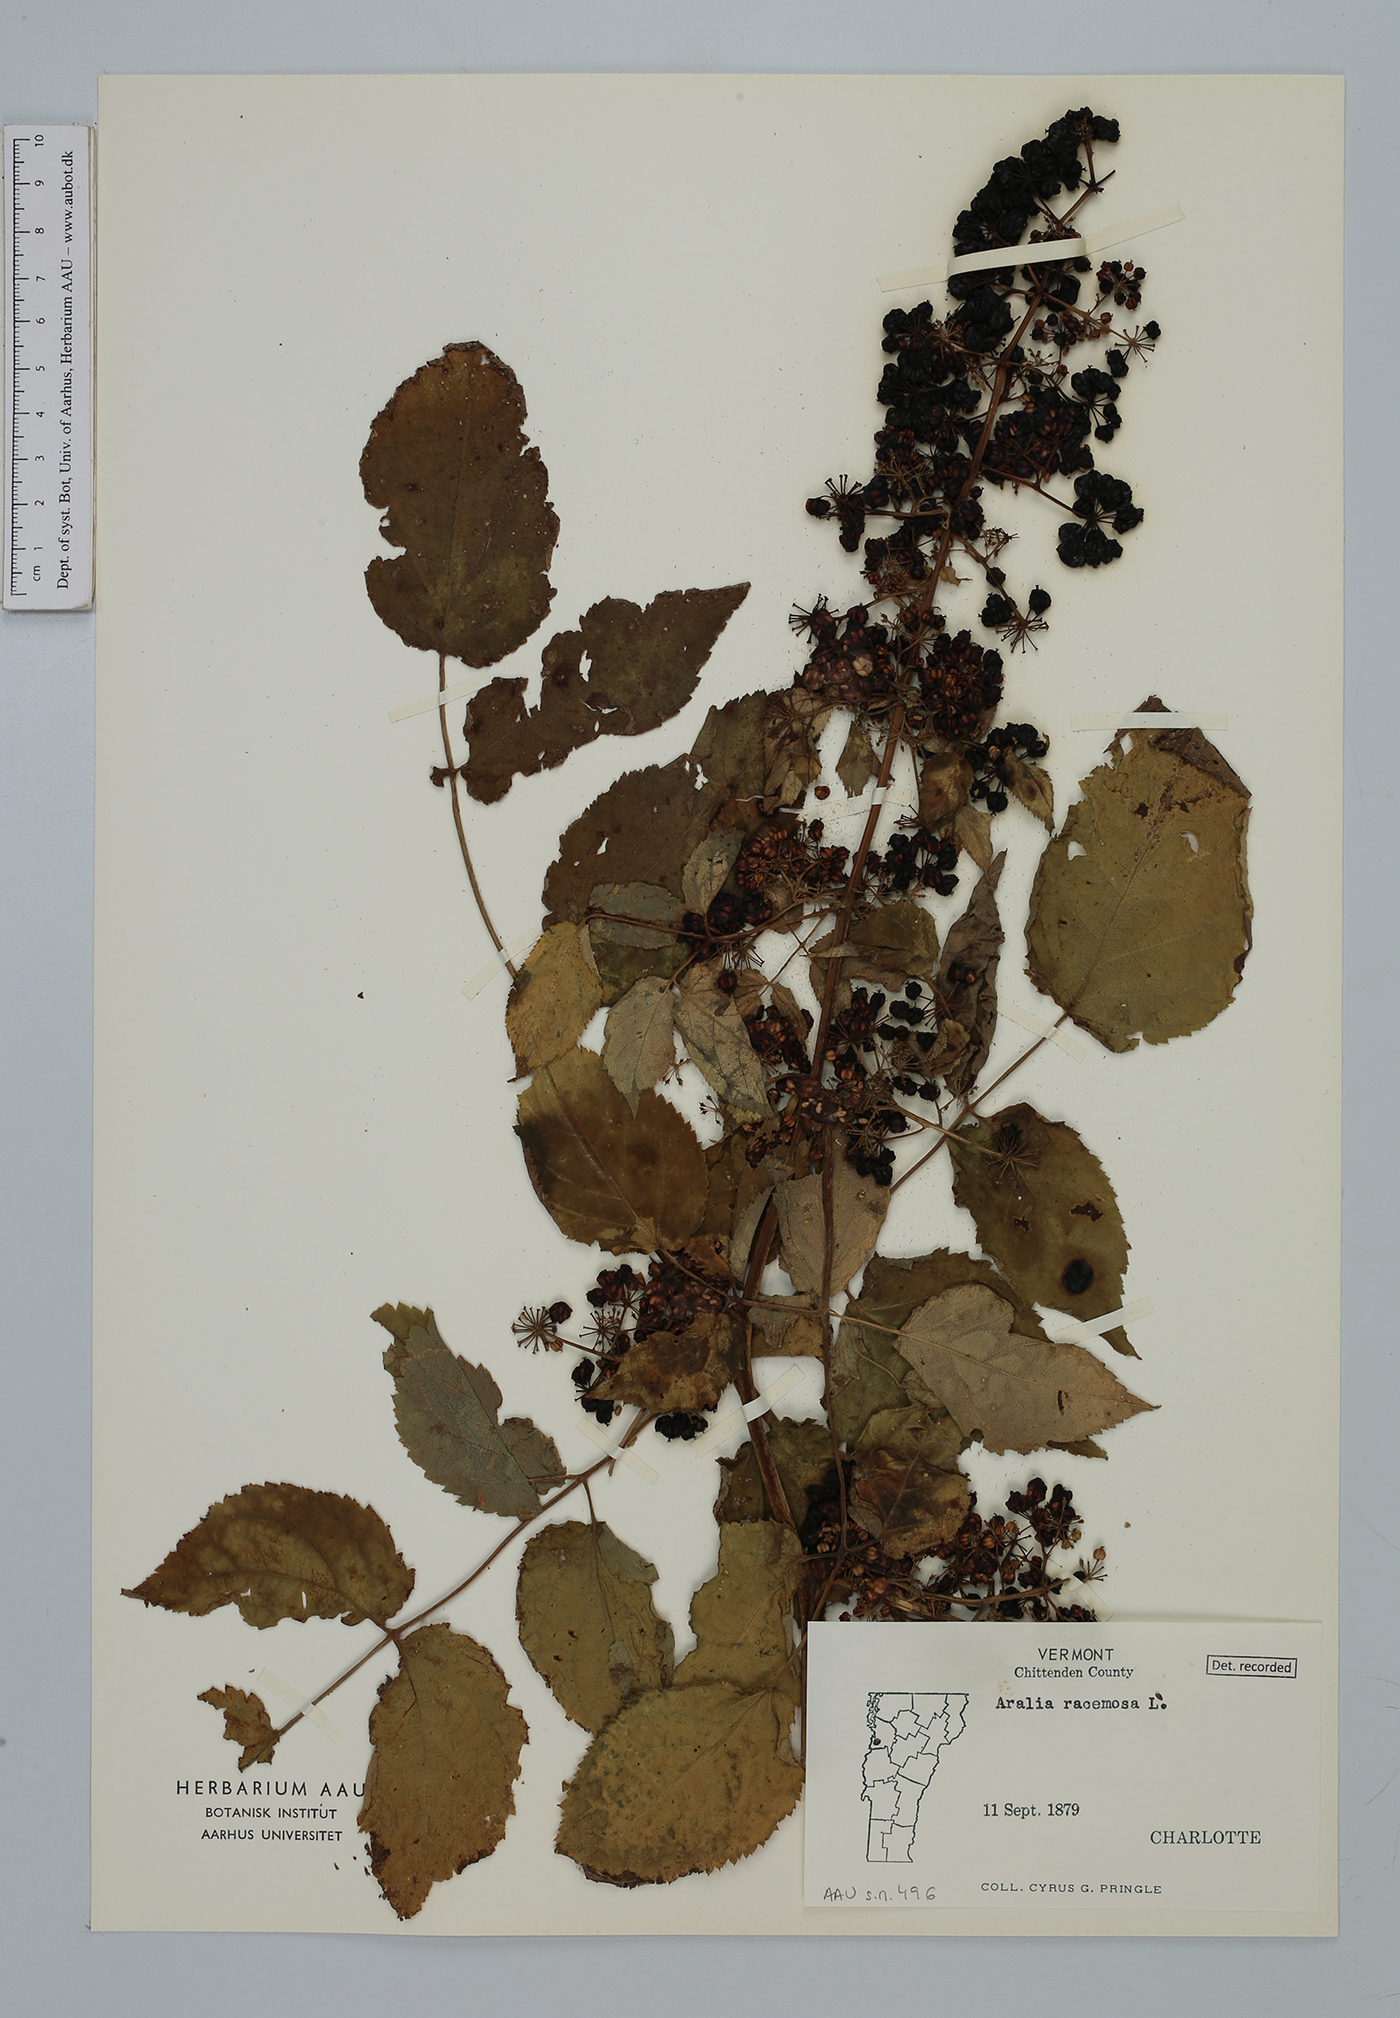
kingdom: Plantae
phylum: Tracheophyta
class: Magnoliopsida
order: Apiales
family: Araliaceae
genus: Aralia
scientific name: Aralia racemosa
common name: American-spikenard
